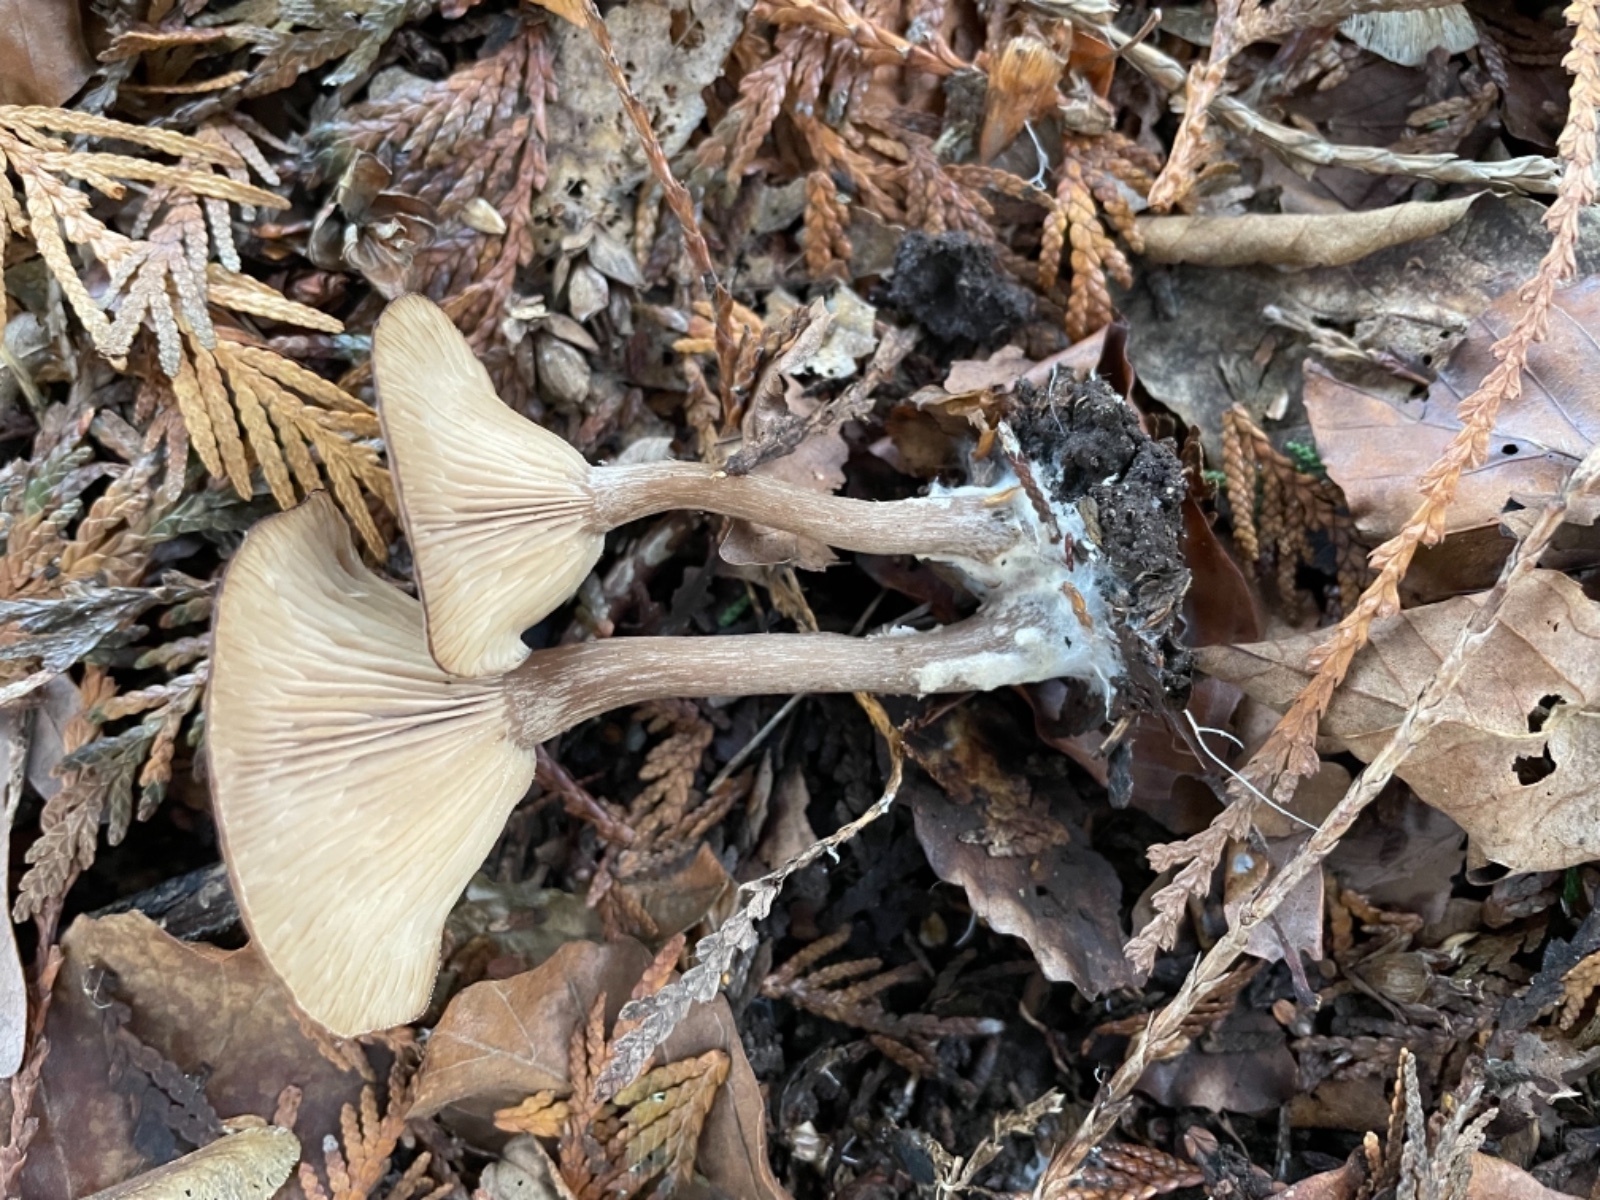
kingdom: Fungi
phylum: Basidiomycota
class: Agaricomycetes
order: Agaricales
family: Pseudoclitocybaceae
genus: Pseudoclitocybe
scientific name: Pseudoclitocybe cyathiformis
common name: almindelig bægertragthat
